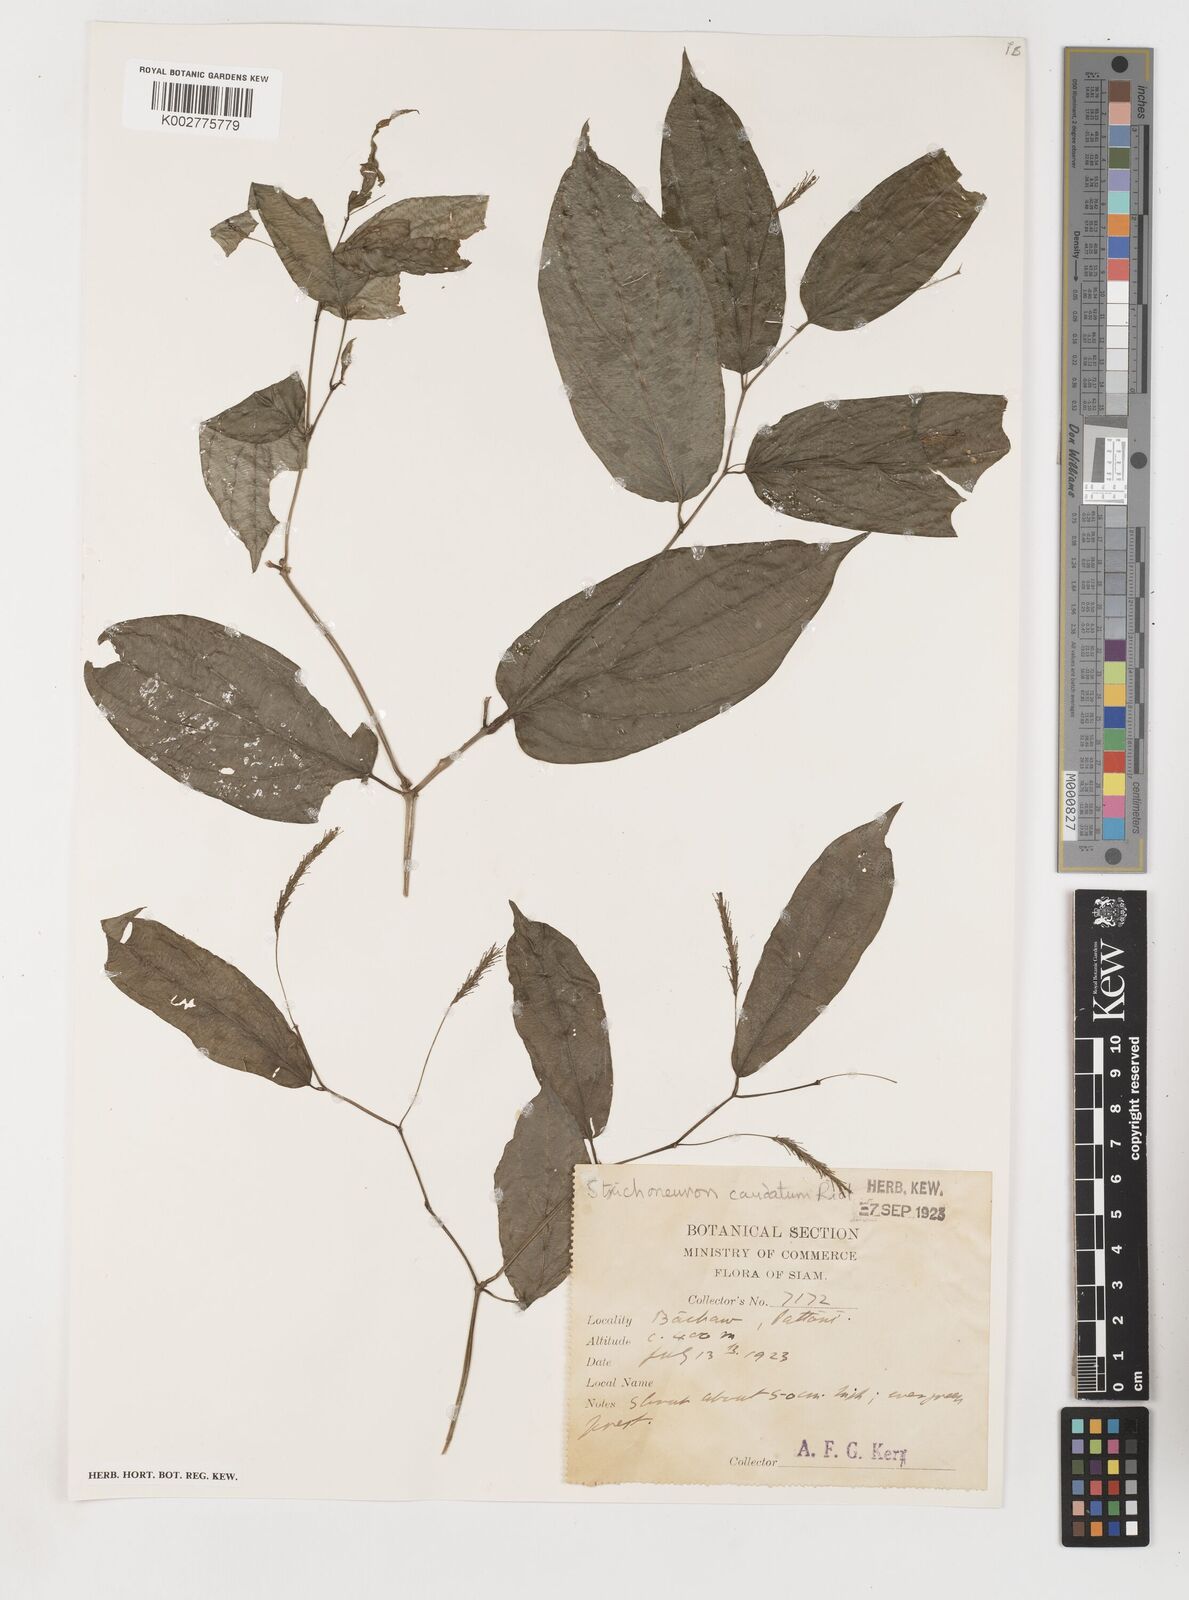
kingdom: Plantae
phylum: Tracheophyta
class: Liliopsida
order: Pandanales
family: Stemonaceae
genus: Stichoneuron
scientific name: Stichoneuron caudatum
